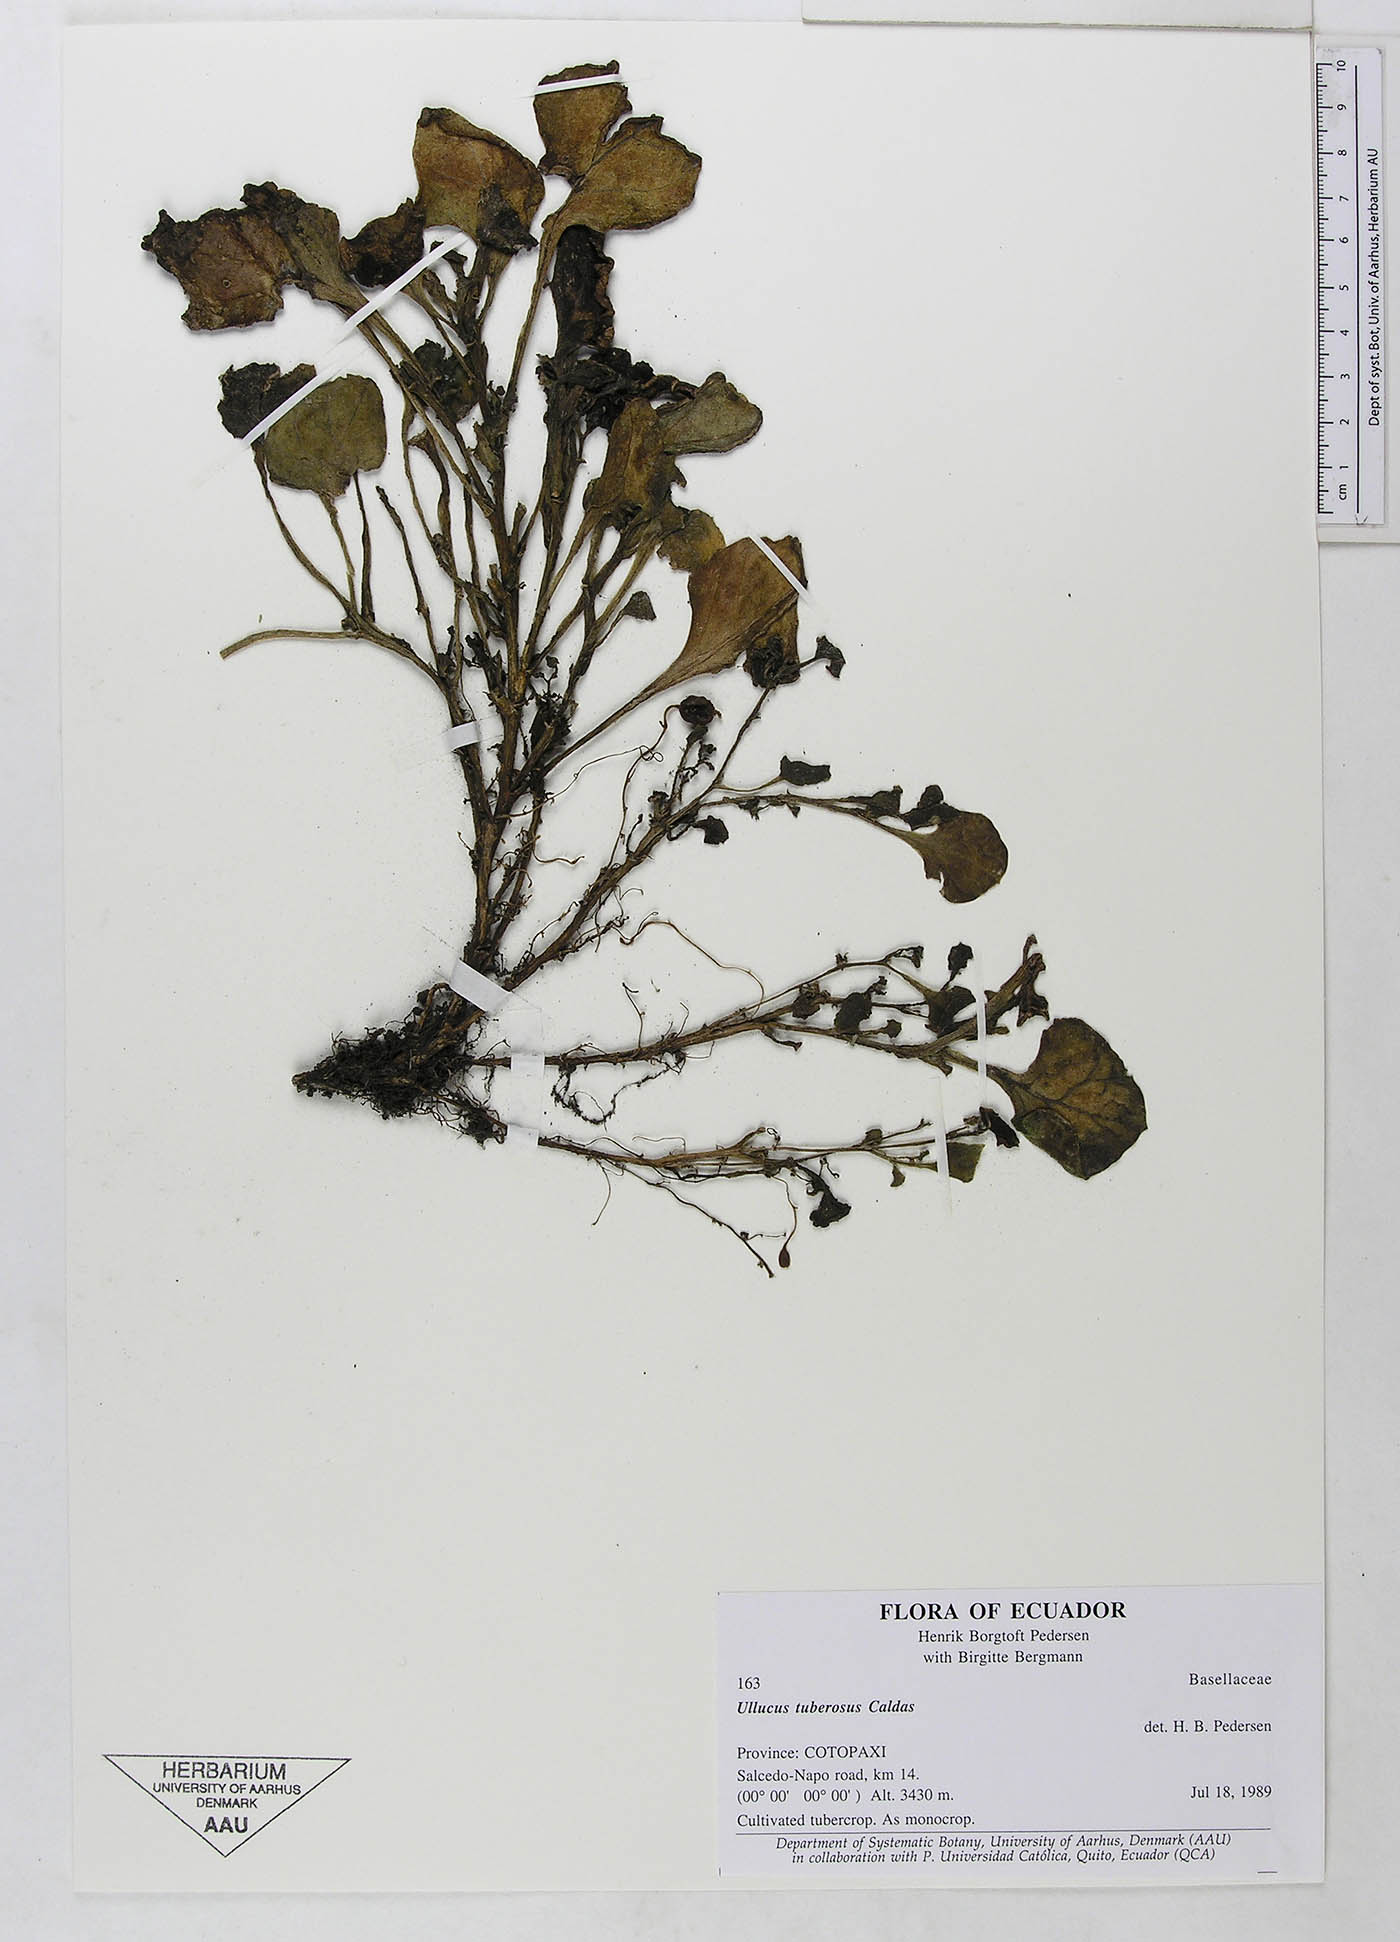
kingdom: Plantae
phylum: Tracheophyta
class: Magnoliopsida
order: Caryophyllales
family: Basellaceae
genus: Ullucus
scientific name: Ullucus tuberosus
